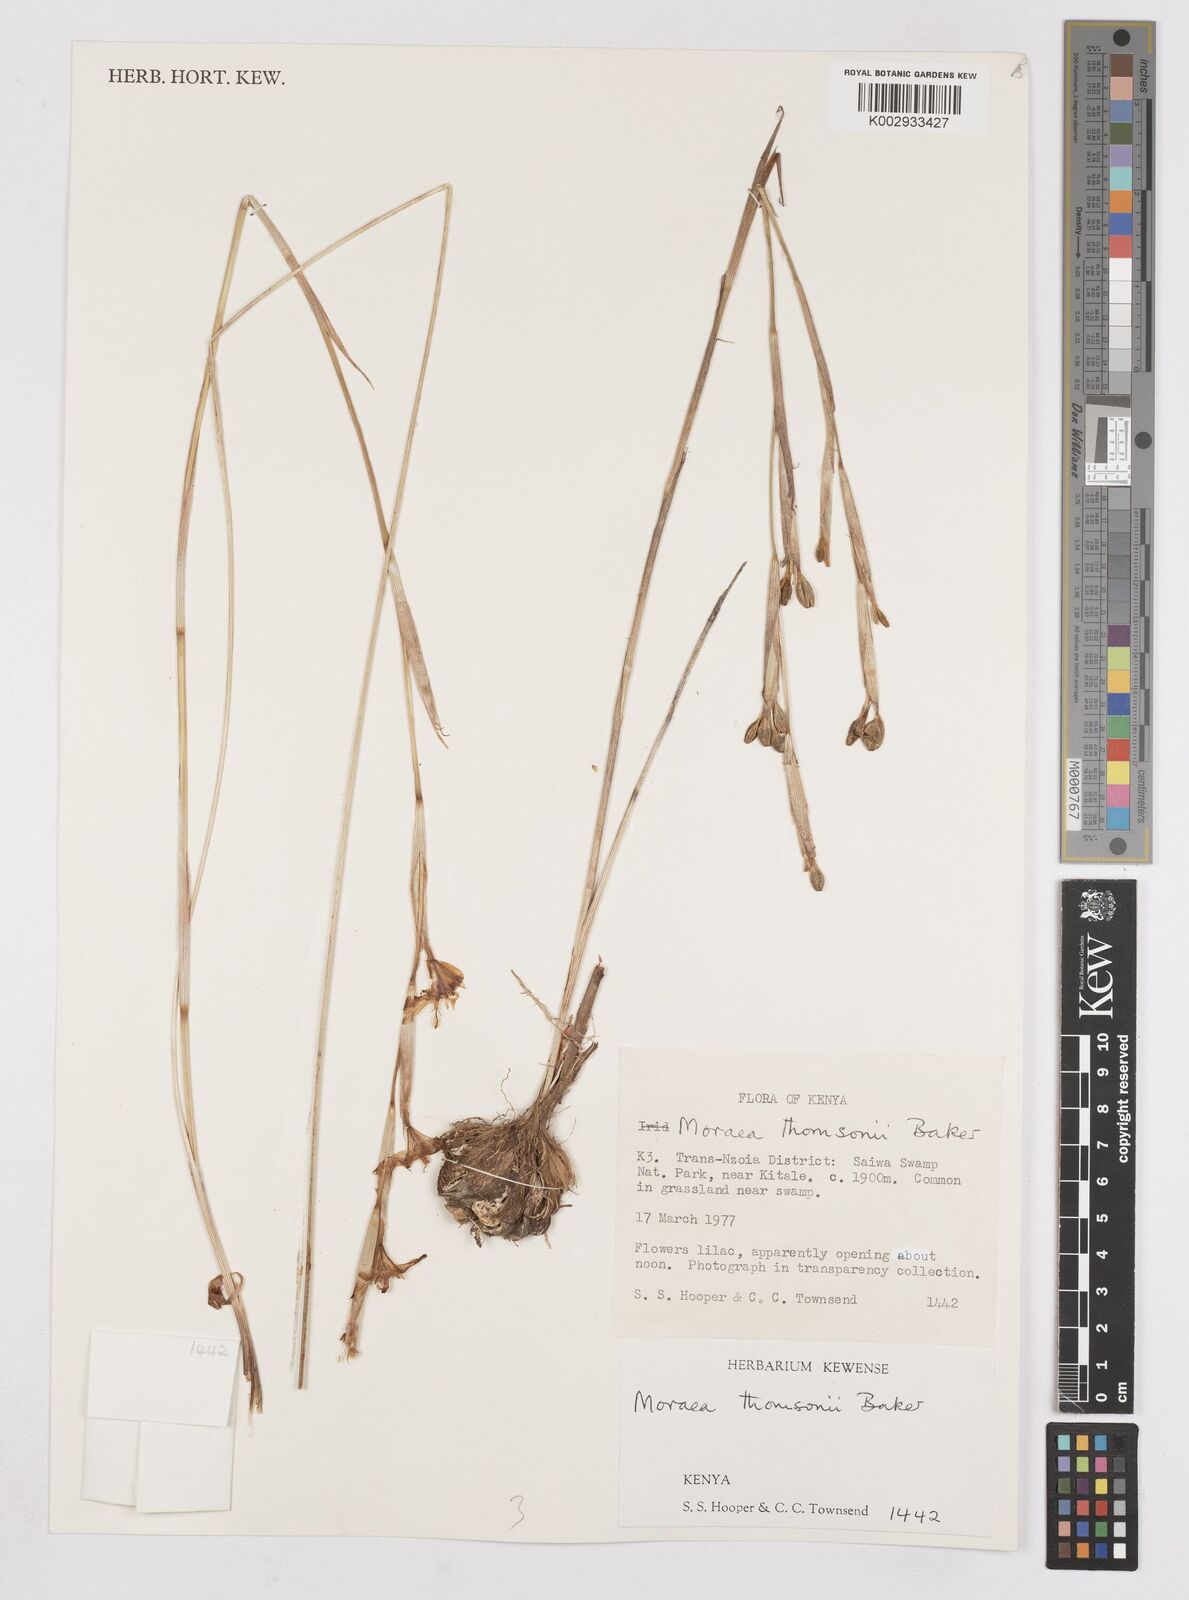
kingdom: Plantae
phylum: Tracheophyta
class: Liliopsida
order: Asparagales
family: Iridaceae
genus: Moraea
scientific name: Moraea thomsonii
